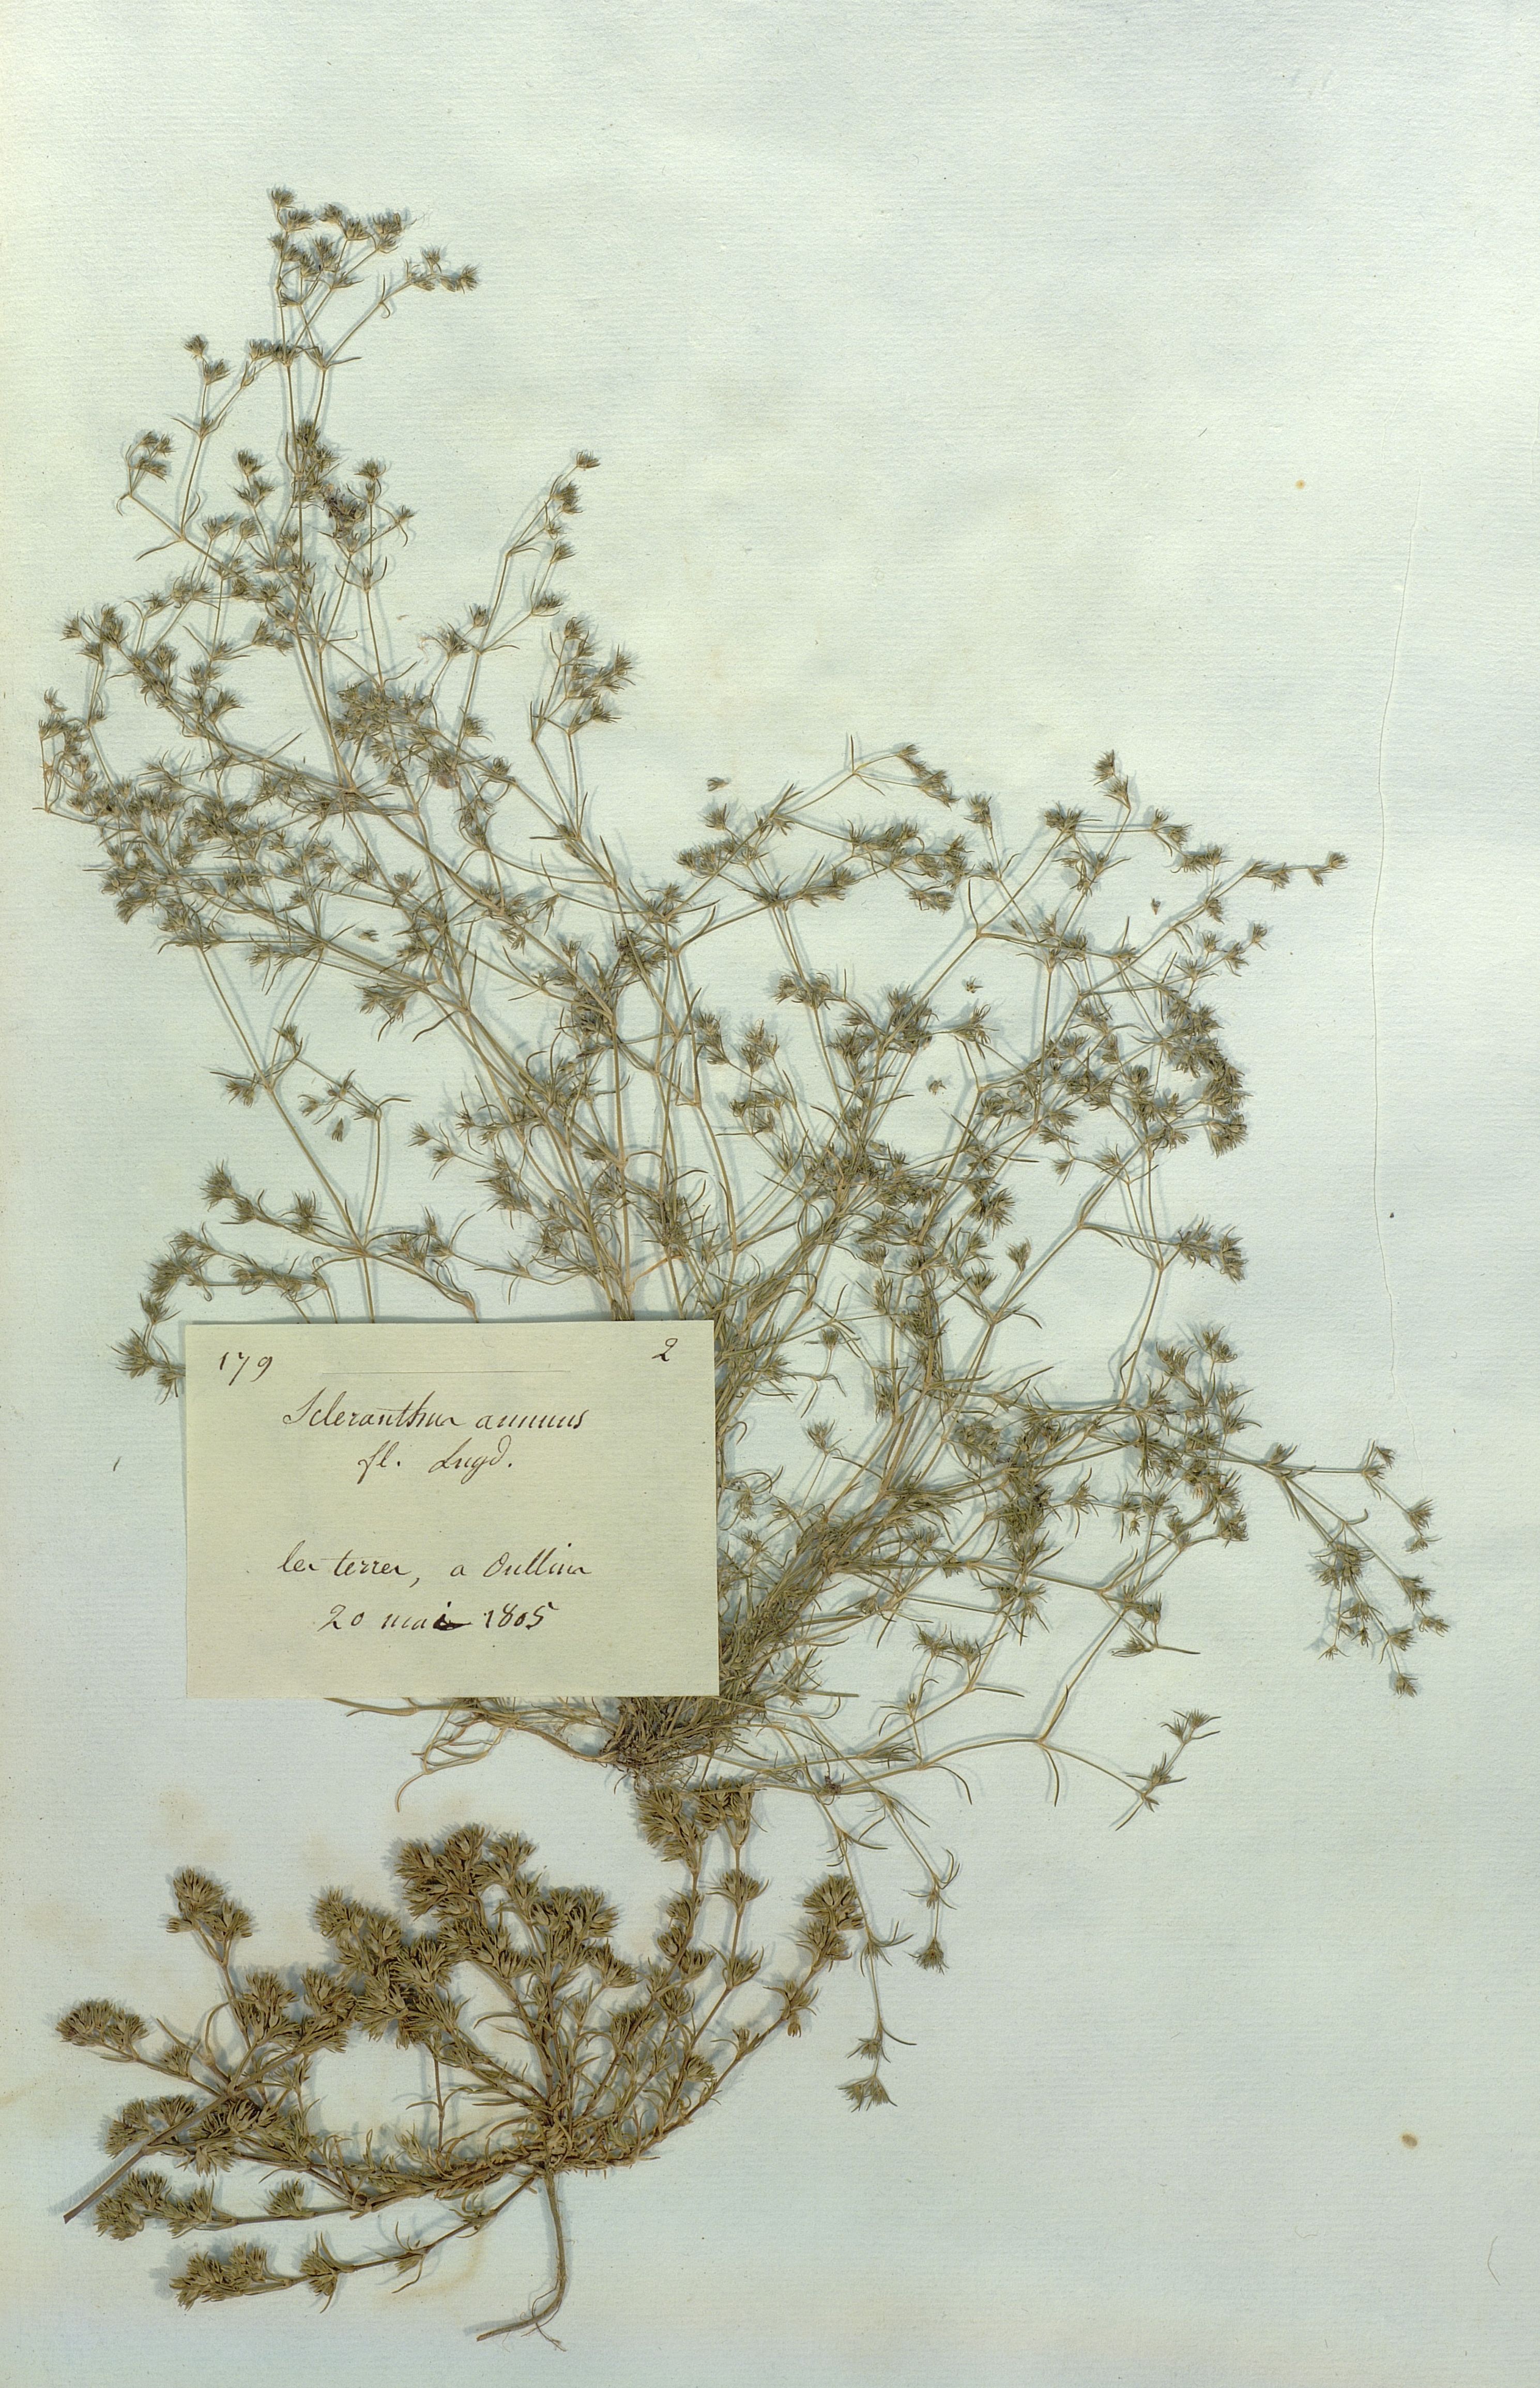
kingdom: Plantae
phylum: Tracheophyta
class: Magnoliopsida
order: Caryophyllales
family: Caryophyllaceae
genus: Scleranthus
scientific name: Scleranthus annuus
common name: Annual knawel
